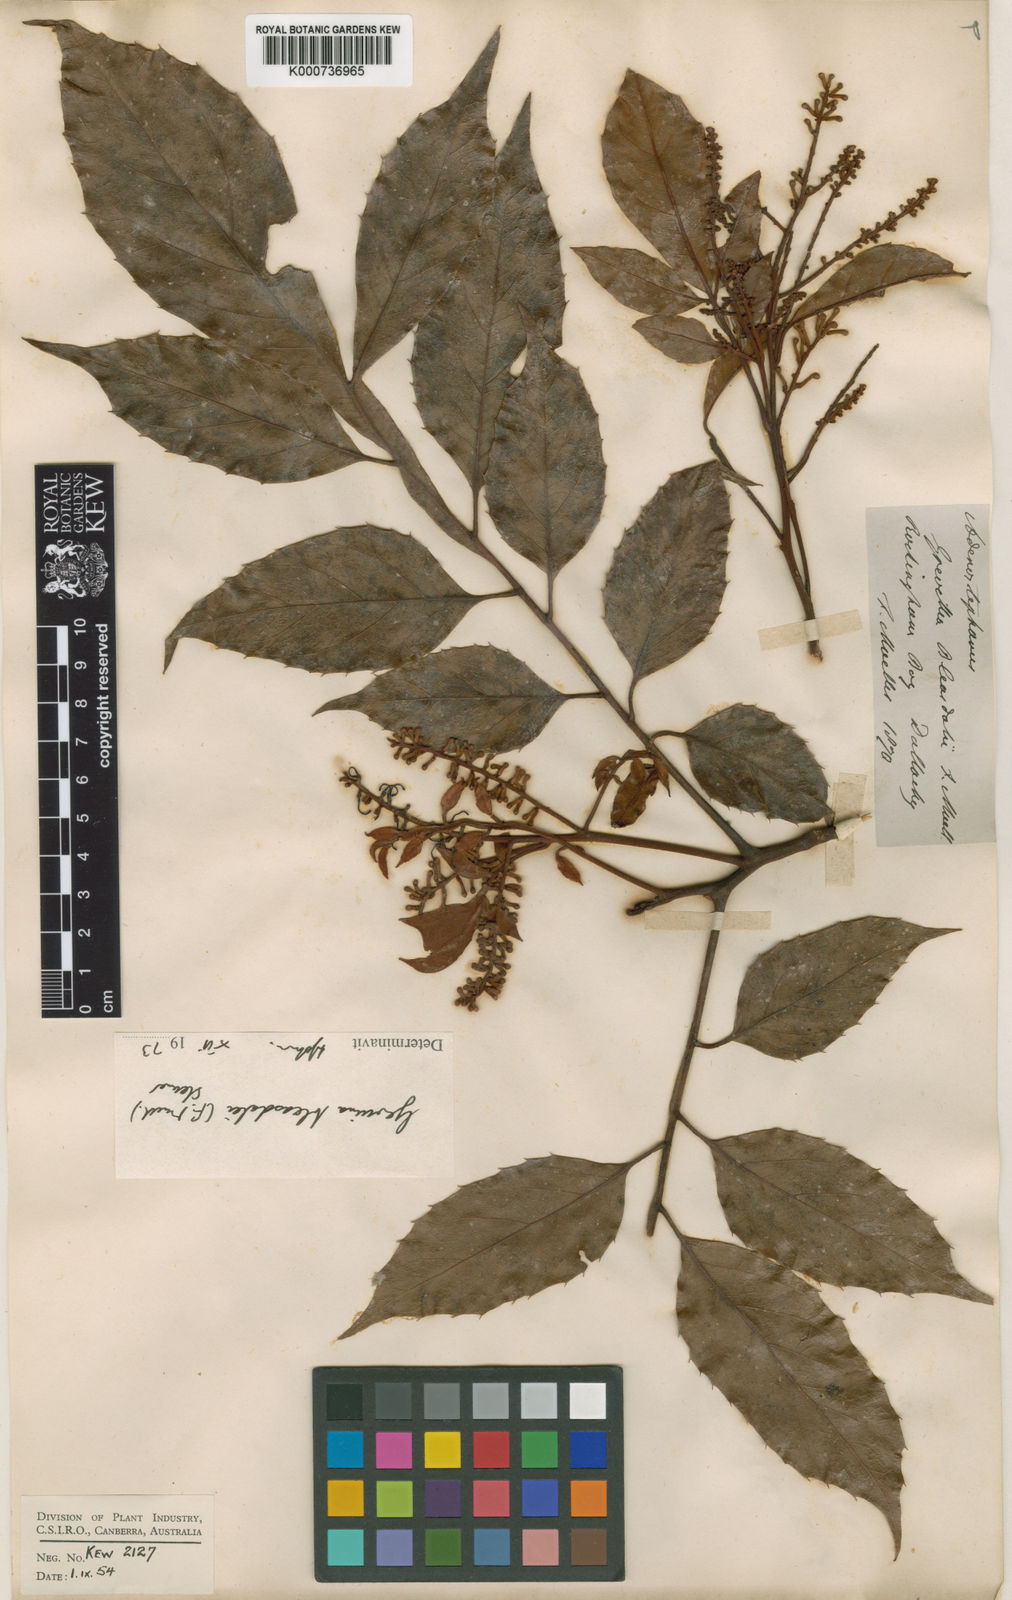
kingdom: Plantae
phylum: Tracheophyta
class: Magnoliopsida
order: Proteales
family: Proteaceae
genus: Gevuina
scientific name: Gevuina bleasdalei
